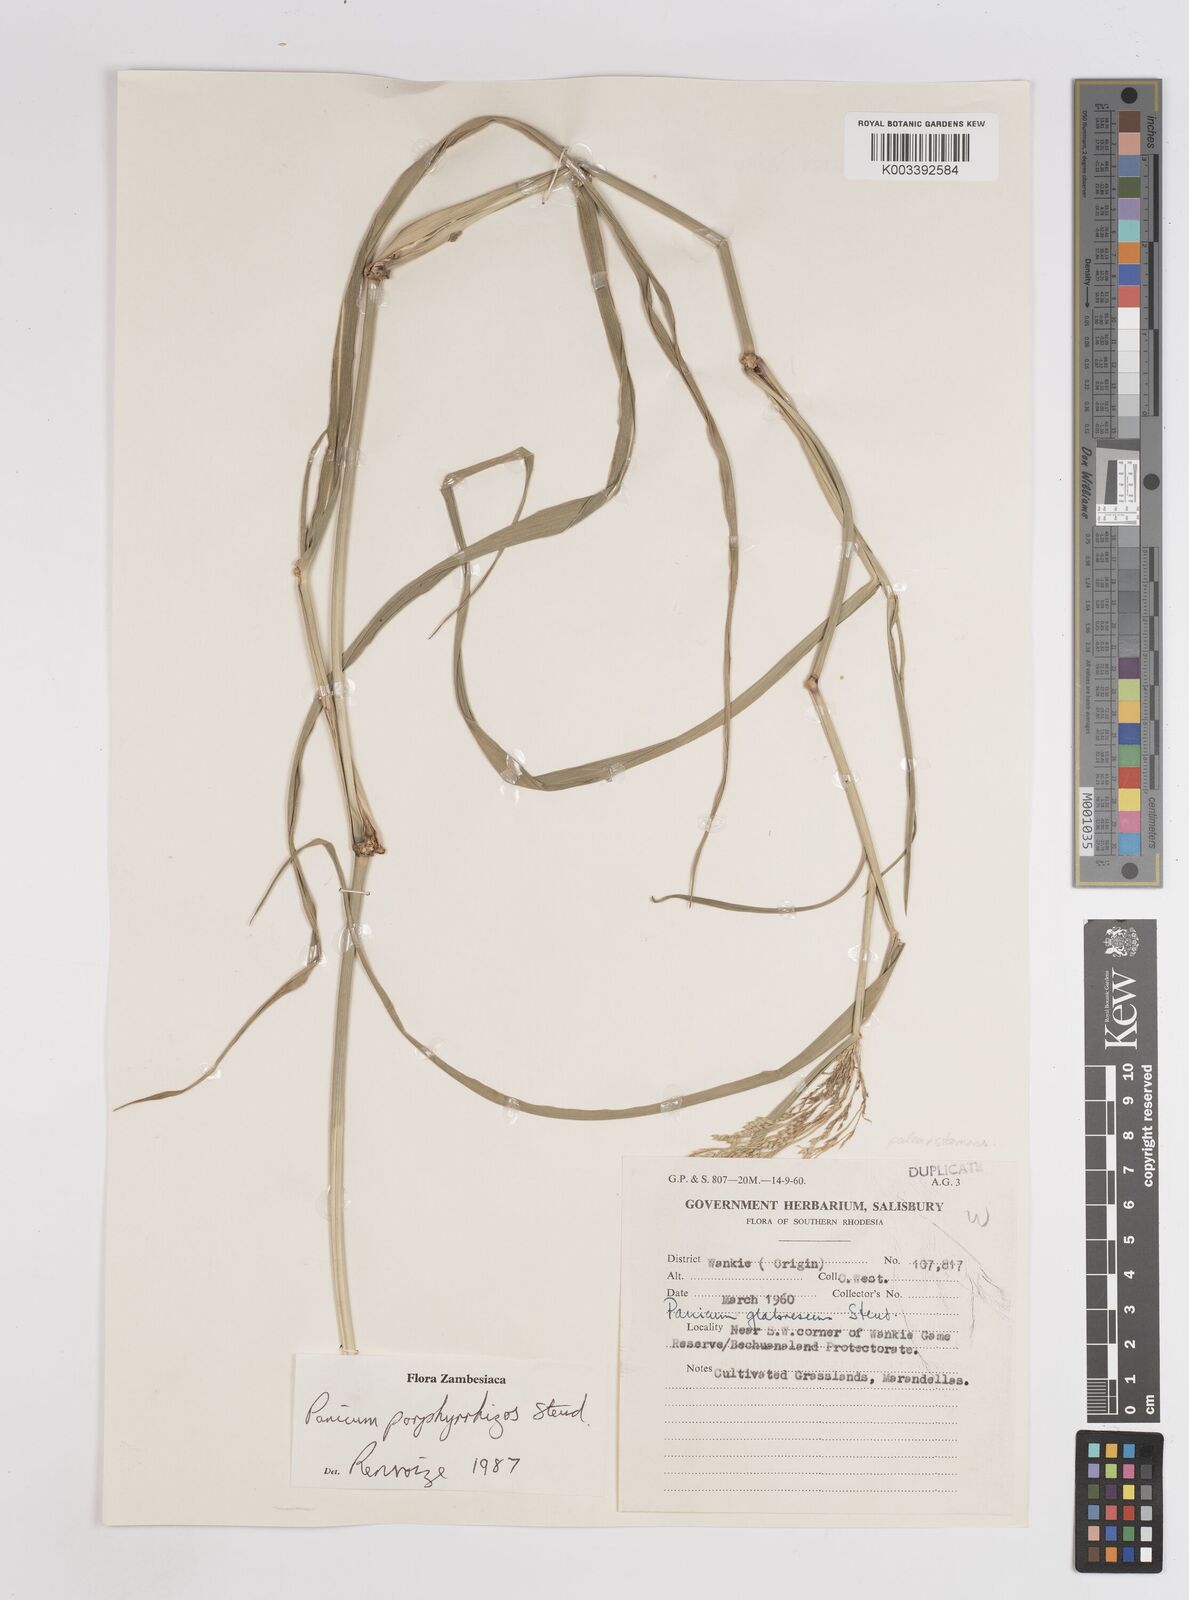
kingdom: Plantae
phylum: Tracheophyta
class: Liliopsida
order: Poales
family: Poaceae
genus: Panicum
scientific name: Panicum porphyrrhizos
